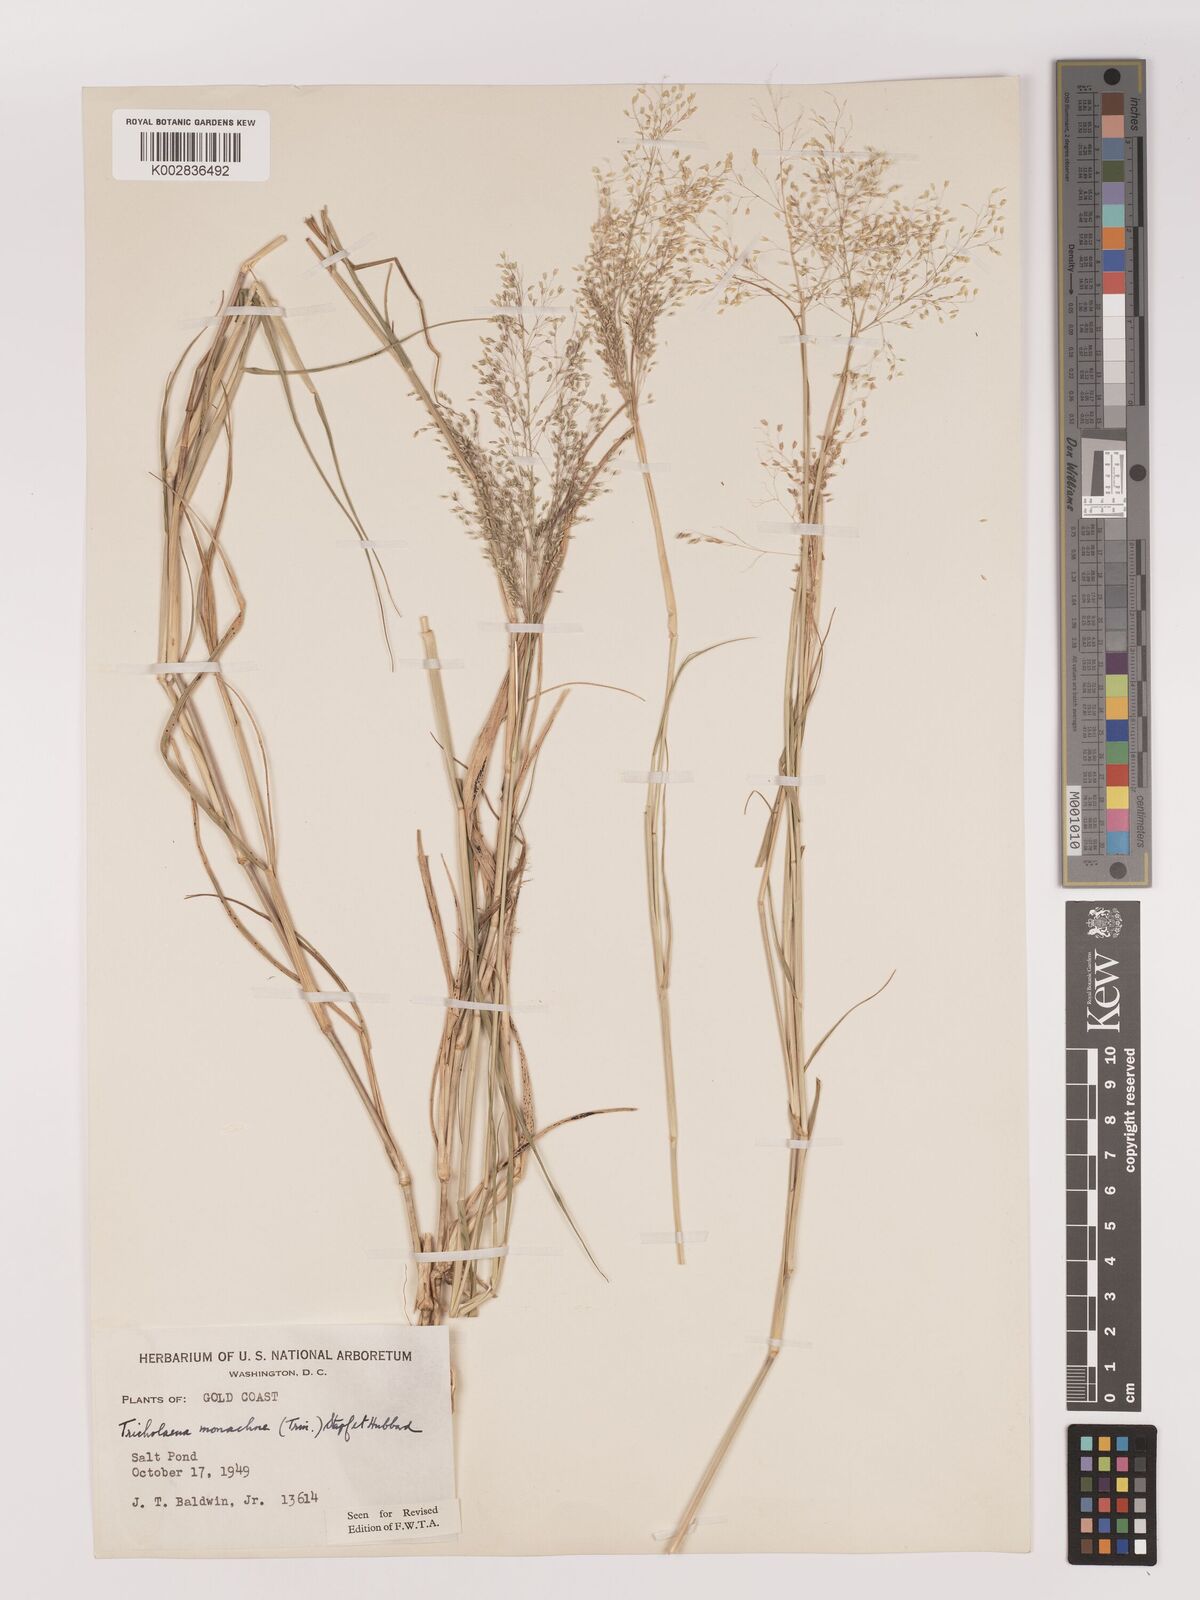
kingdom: Plantae
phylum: Tracheophyta
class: Liliopsida
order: Poales
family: Poaceae
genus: Tricholaena
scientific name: Tricholaena monachne
